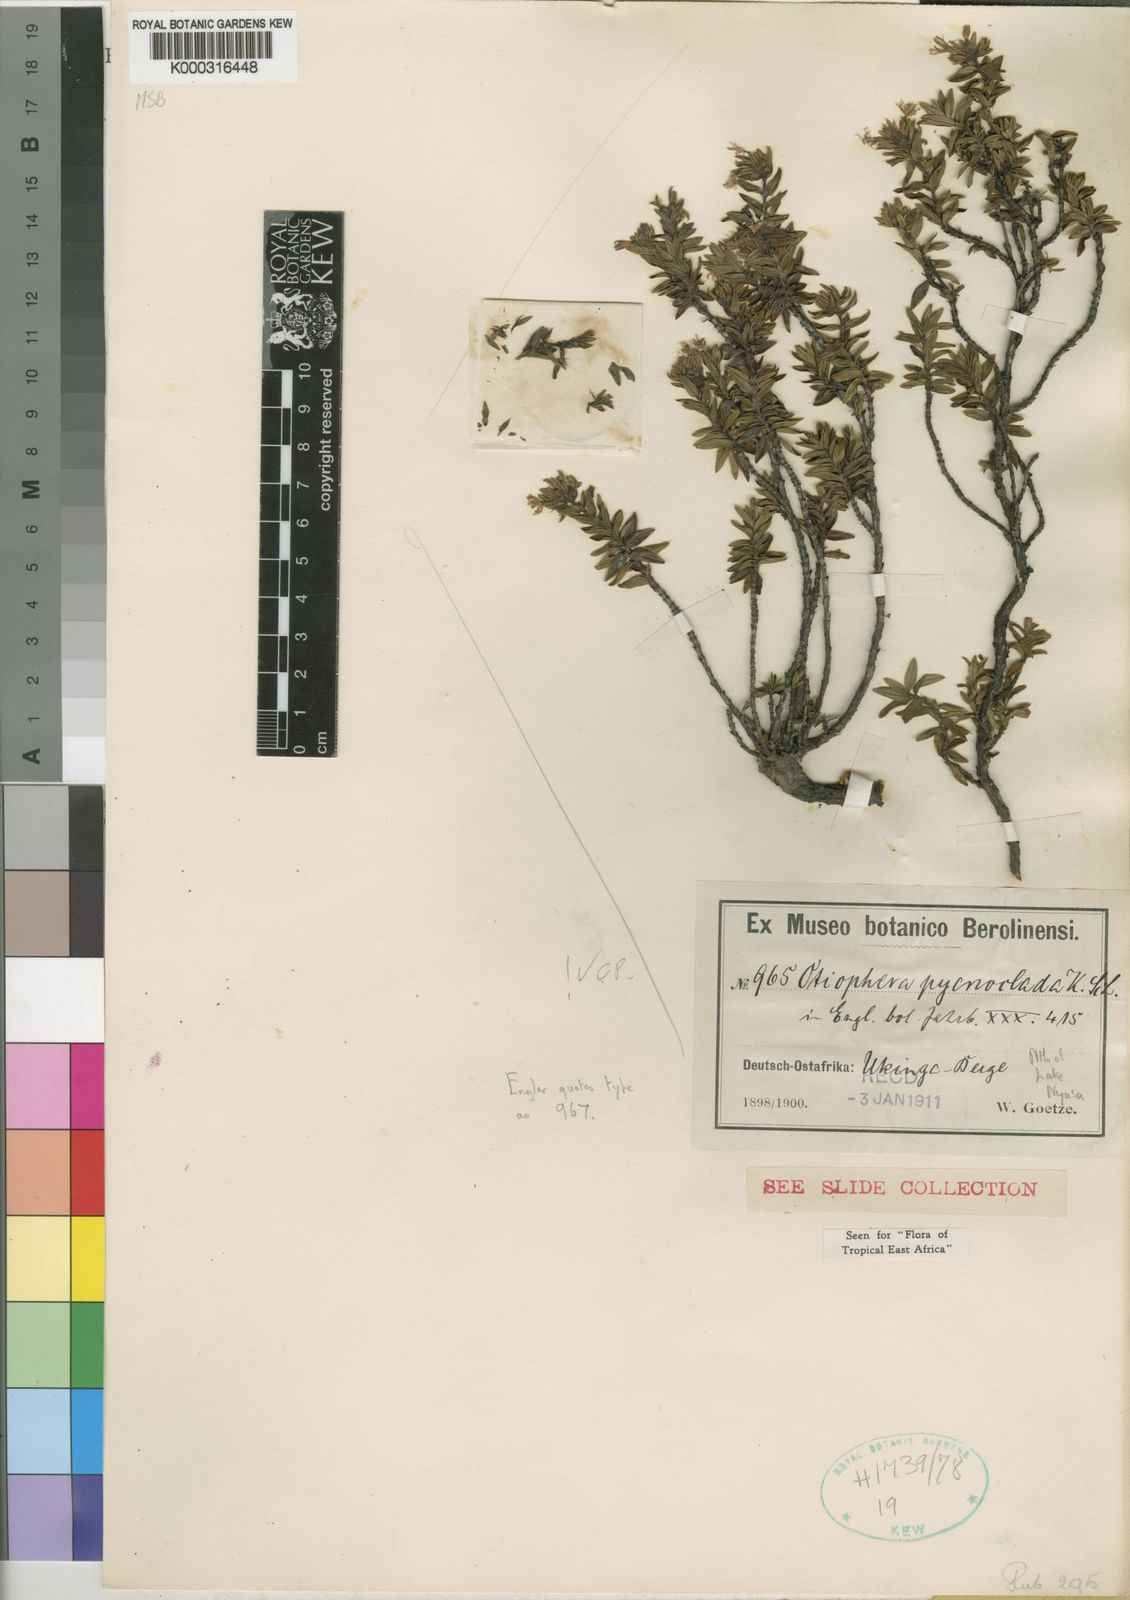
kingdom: Plantae
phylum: Tracheophyta
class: Magnoliopsida
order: Gentianales
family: Rubiaceae
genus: Otiophora
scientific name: Otiophora pycnoclada
